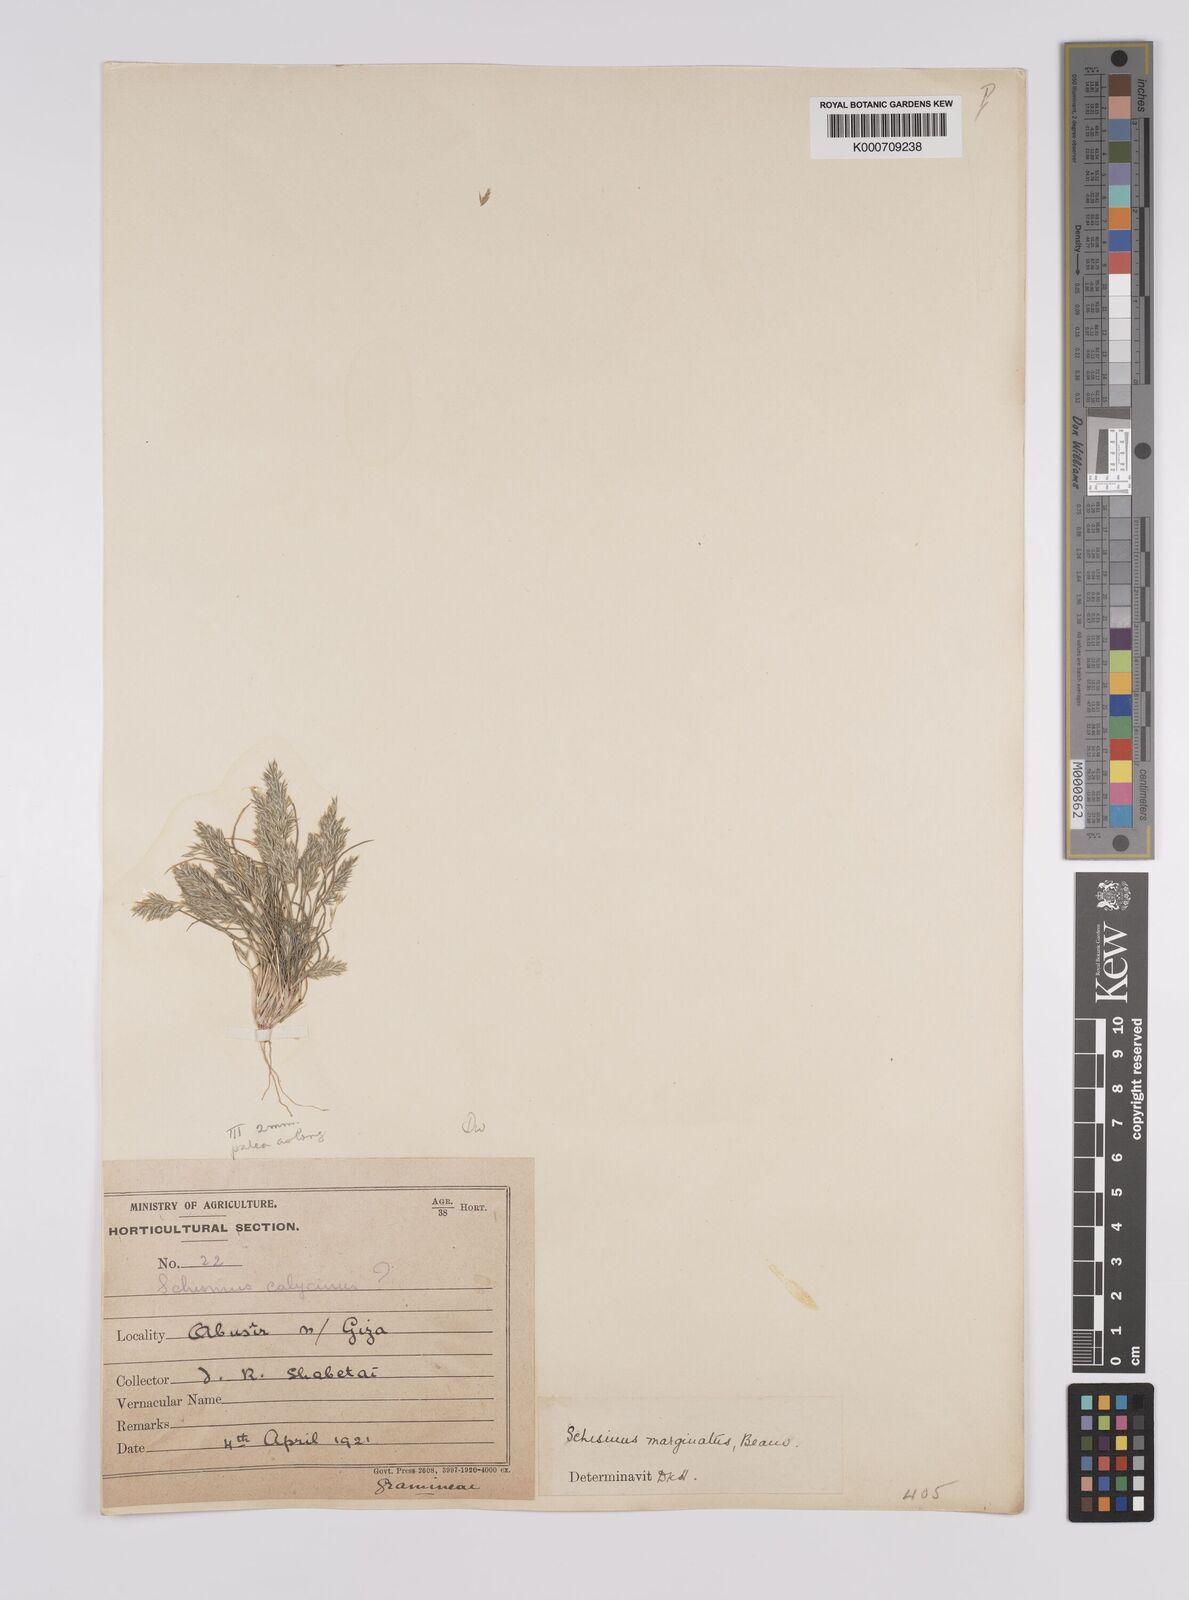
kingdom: Plantae
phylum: Tracheophyta
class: Liliopsida
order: Poales
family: Poaceae
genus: Schismus
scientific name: Schismus barbatus
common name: Kelch-grass
